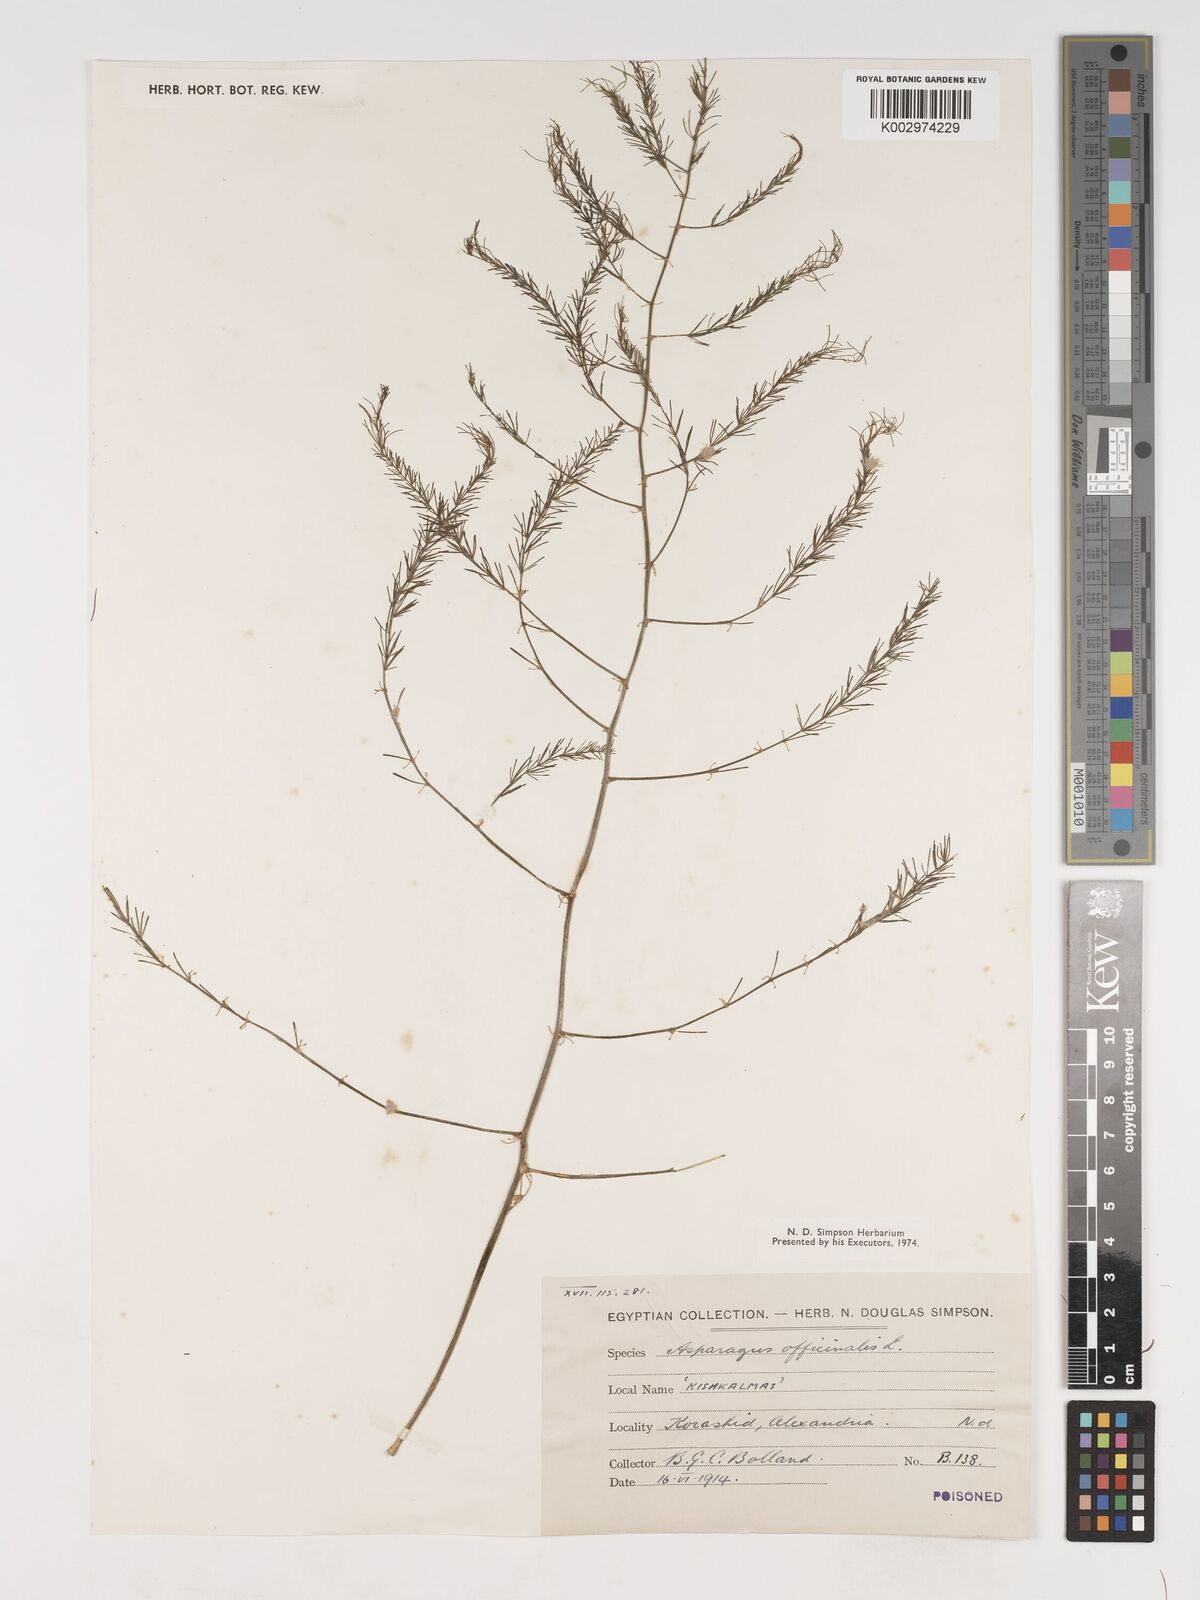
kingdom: Plantae
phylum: Tracheophyta
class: Liliopsida
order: Asparagales
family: Asparagaceae
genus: Asparagus
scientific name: Asparagus officinalis
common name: Garden asparagus
